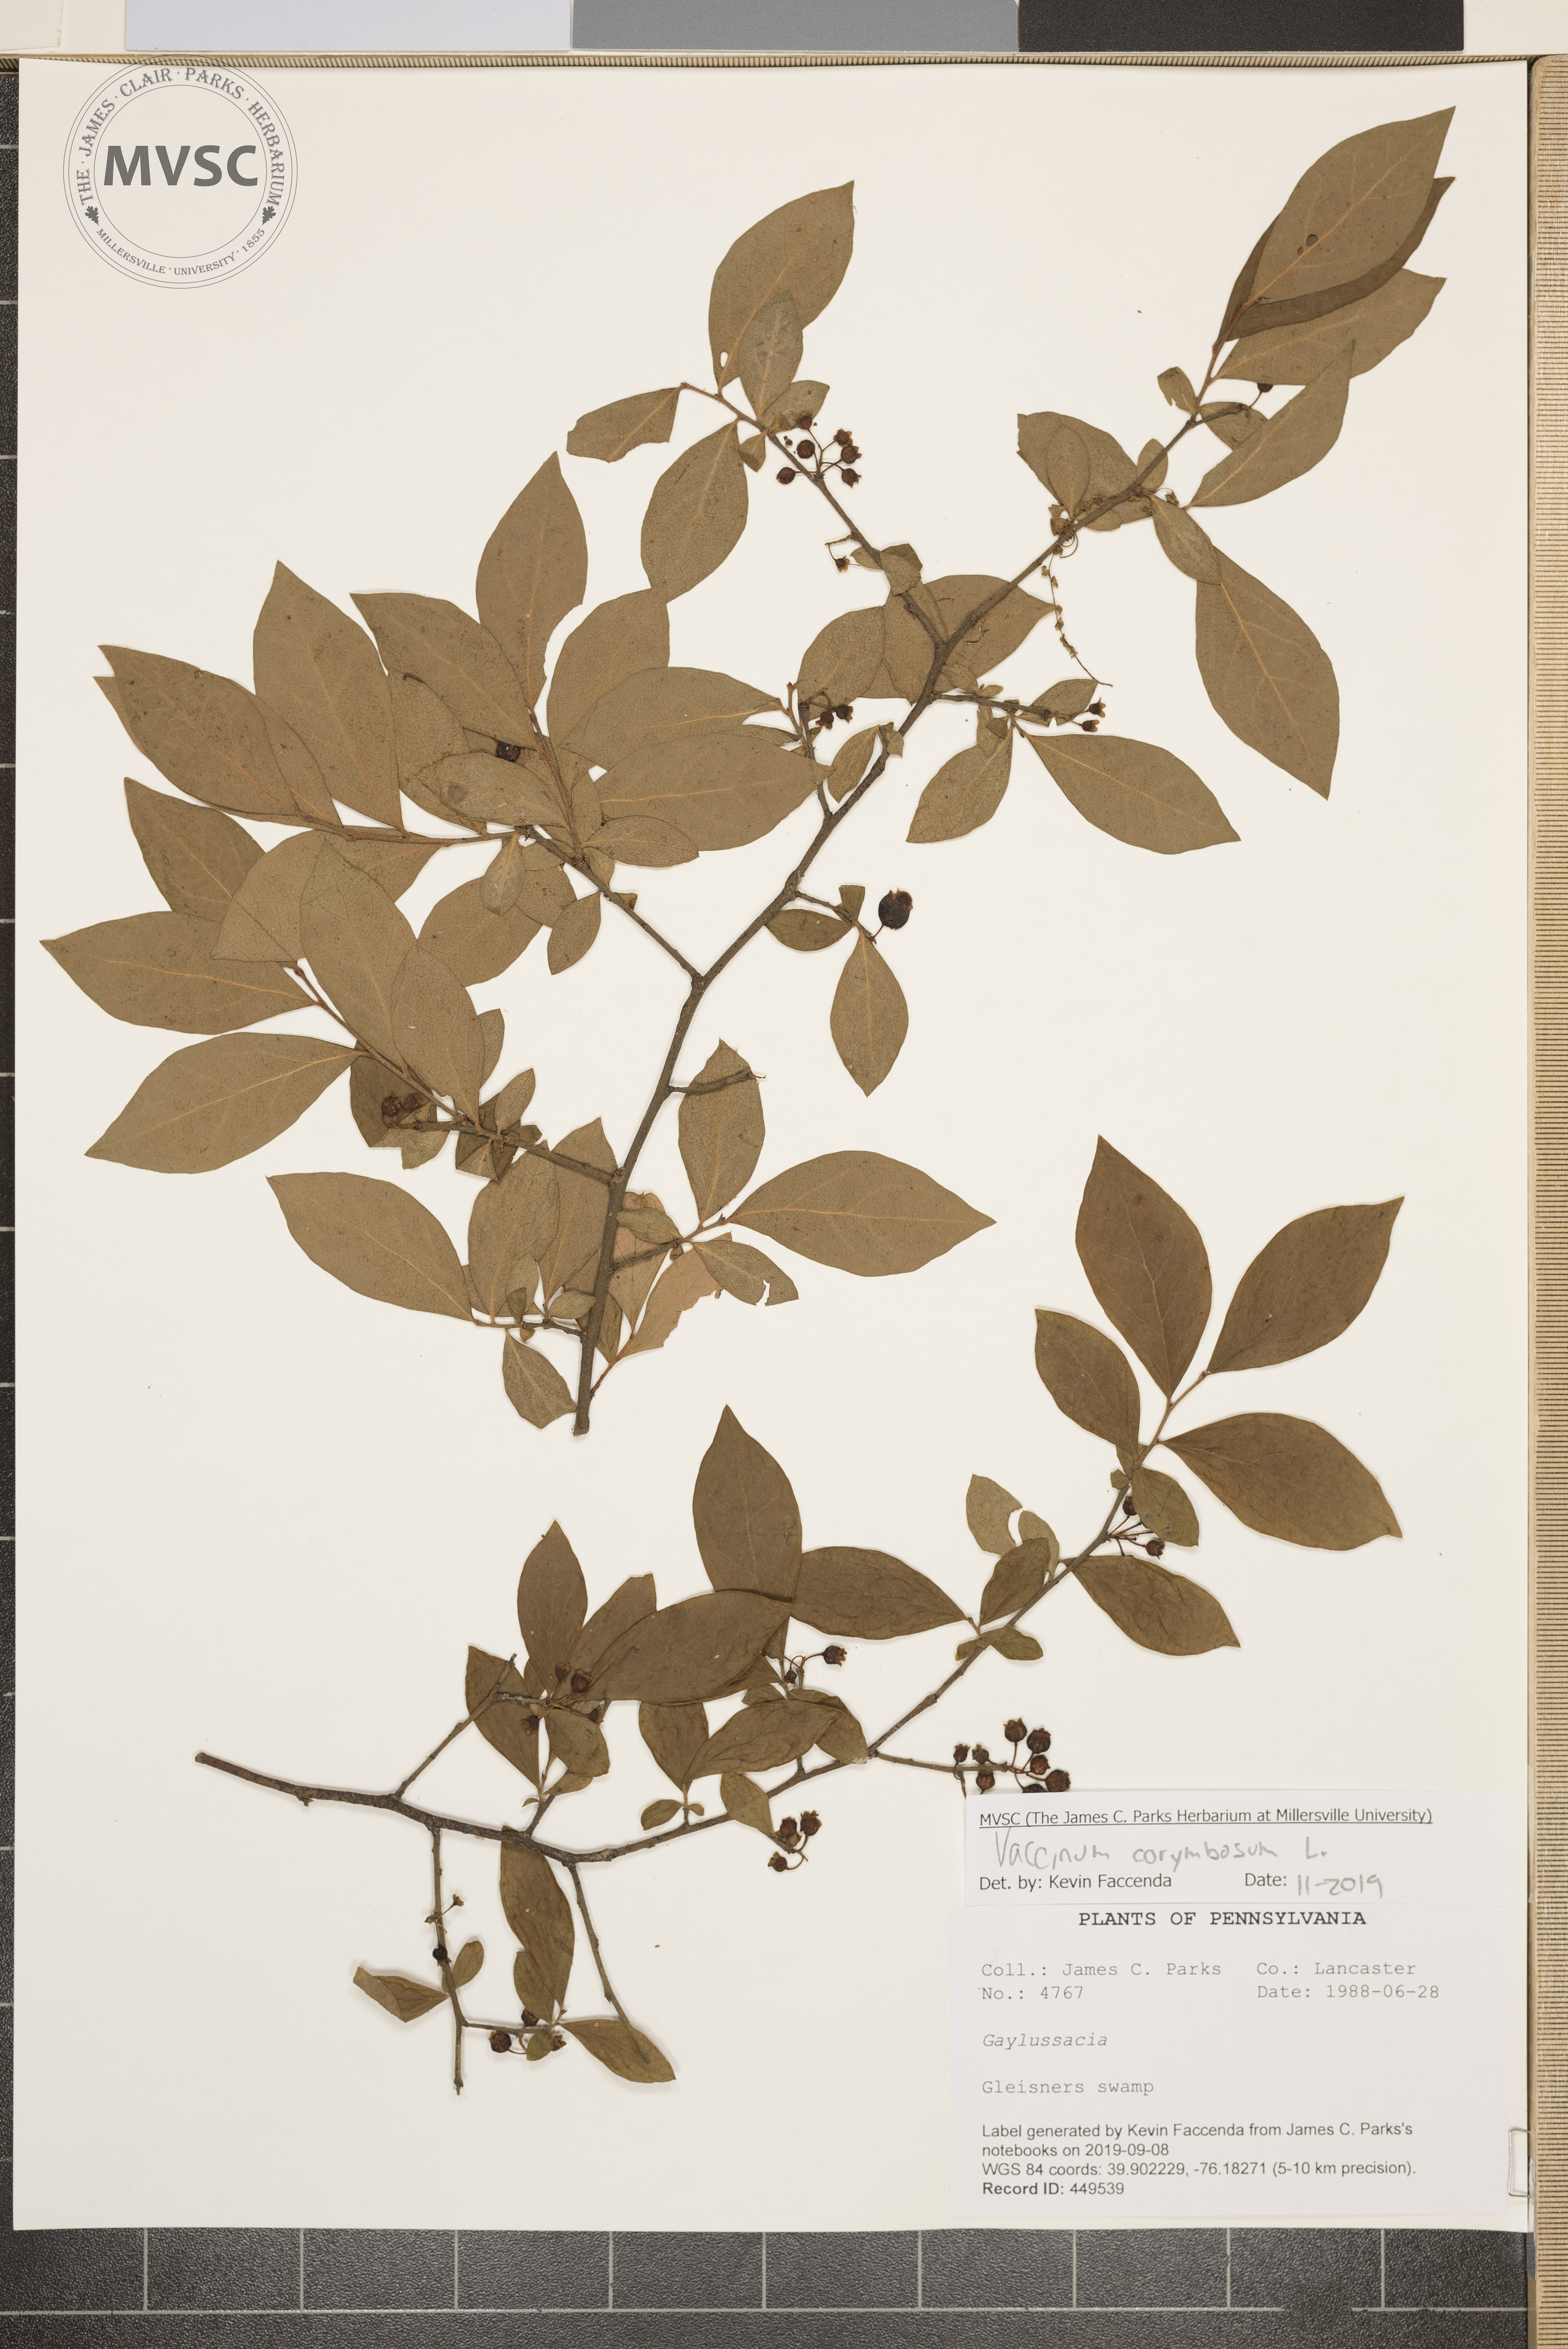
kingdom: Plantae
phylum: Tracheophyta
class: Magnoliopsida
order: Ericales
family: Ericaceae
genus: Vaccinium
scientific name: Vaccinium corymbosum
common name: Blueberry
